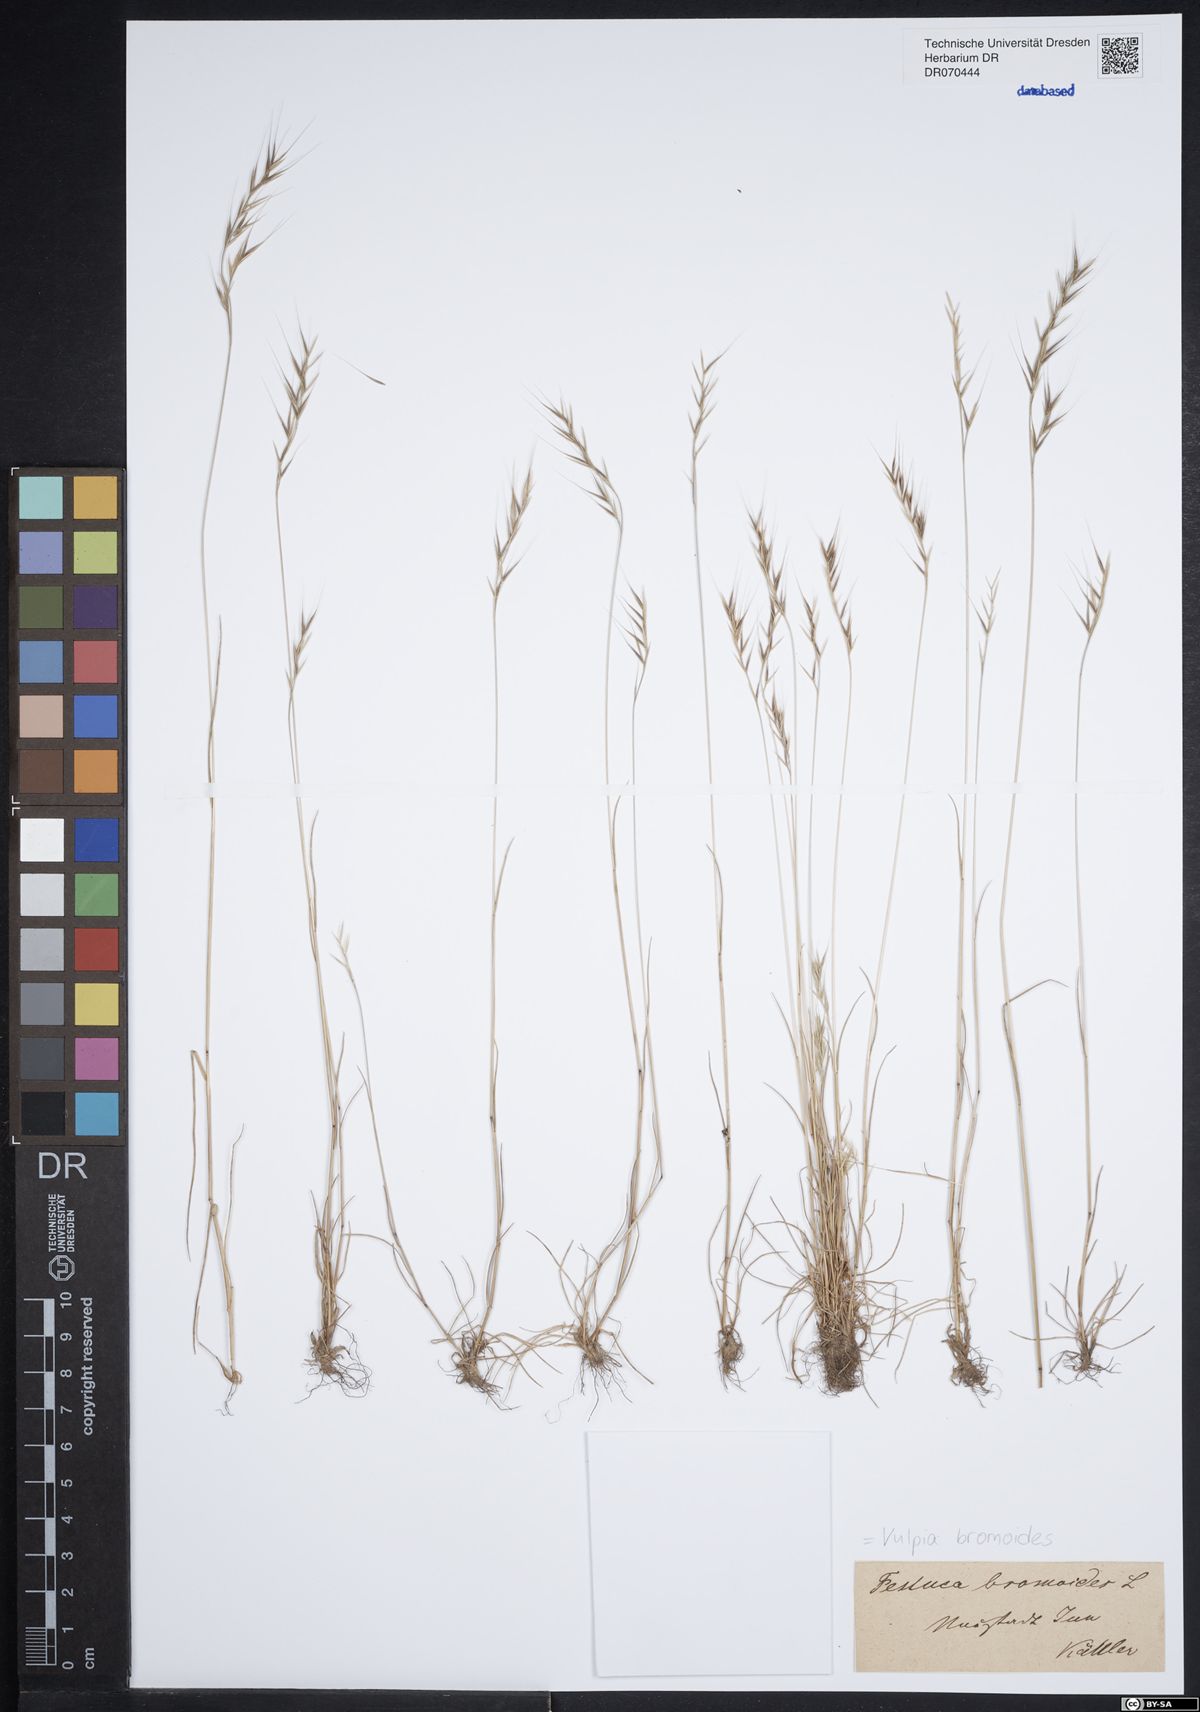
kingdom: Plantae
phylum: Tracheophyta
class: Liliopsida
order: Poales
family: Poaceae
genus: Festuca
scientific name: Festuca bromoides
